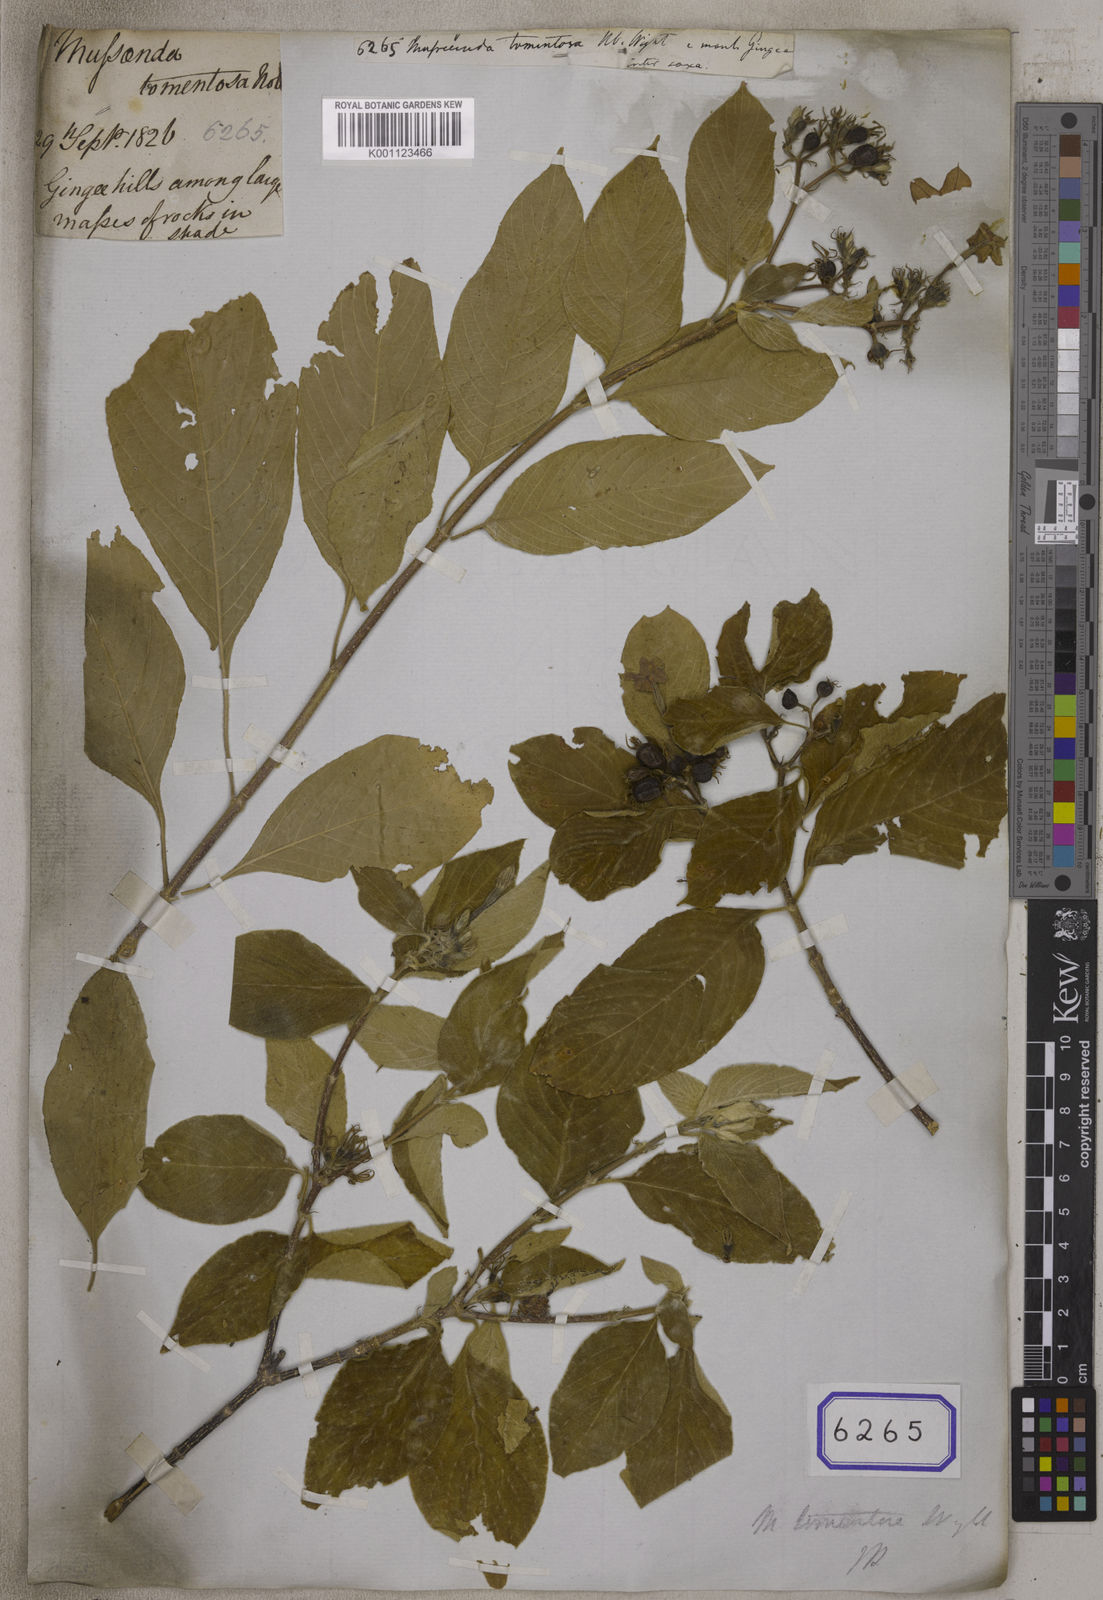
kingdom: Plantae
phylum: Tracheophyta
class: Magnoliopsida
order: Gentianales
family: Rubiaceae
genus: Mussaenda
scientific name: Mussaenda
